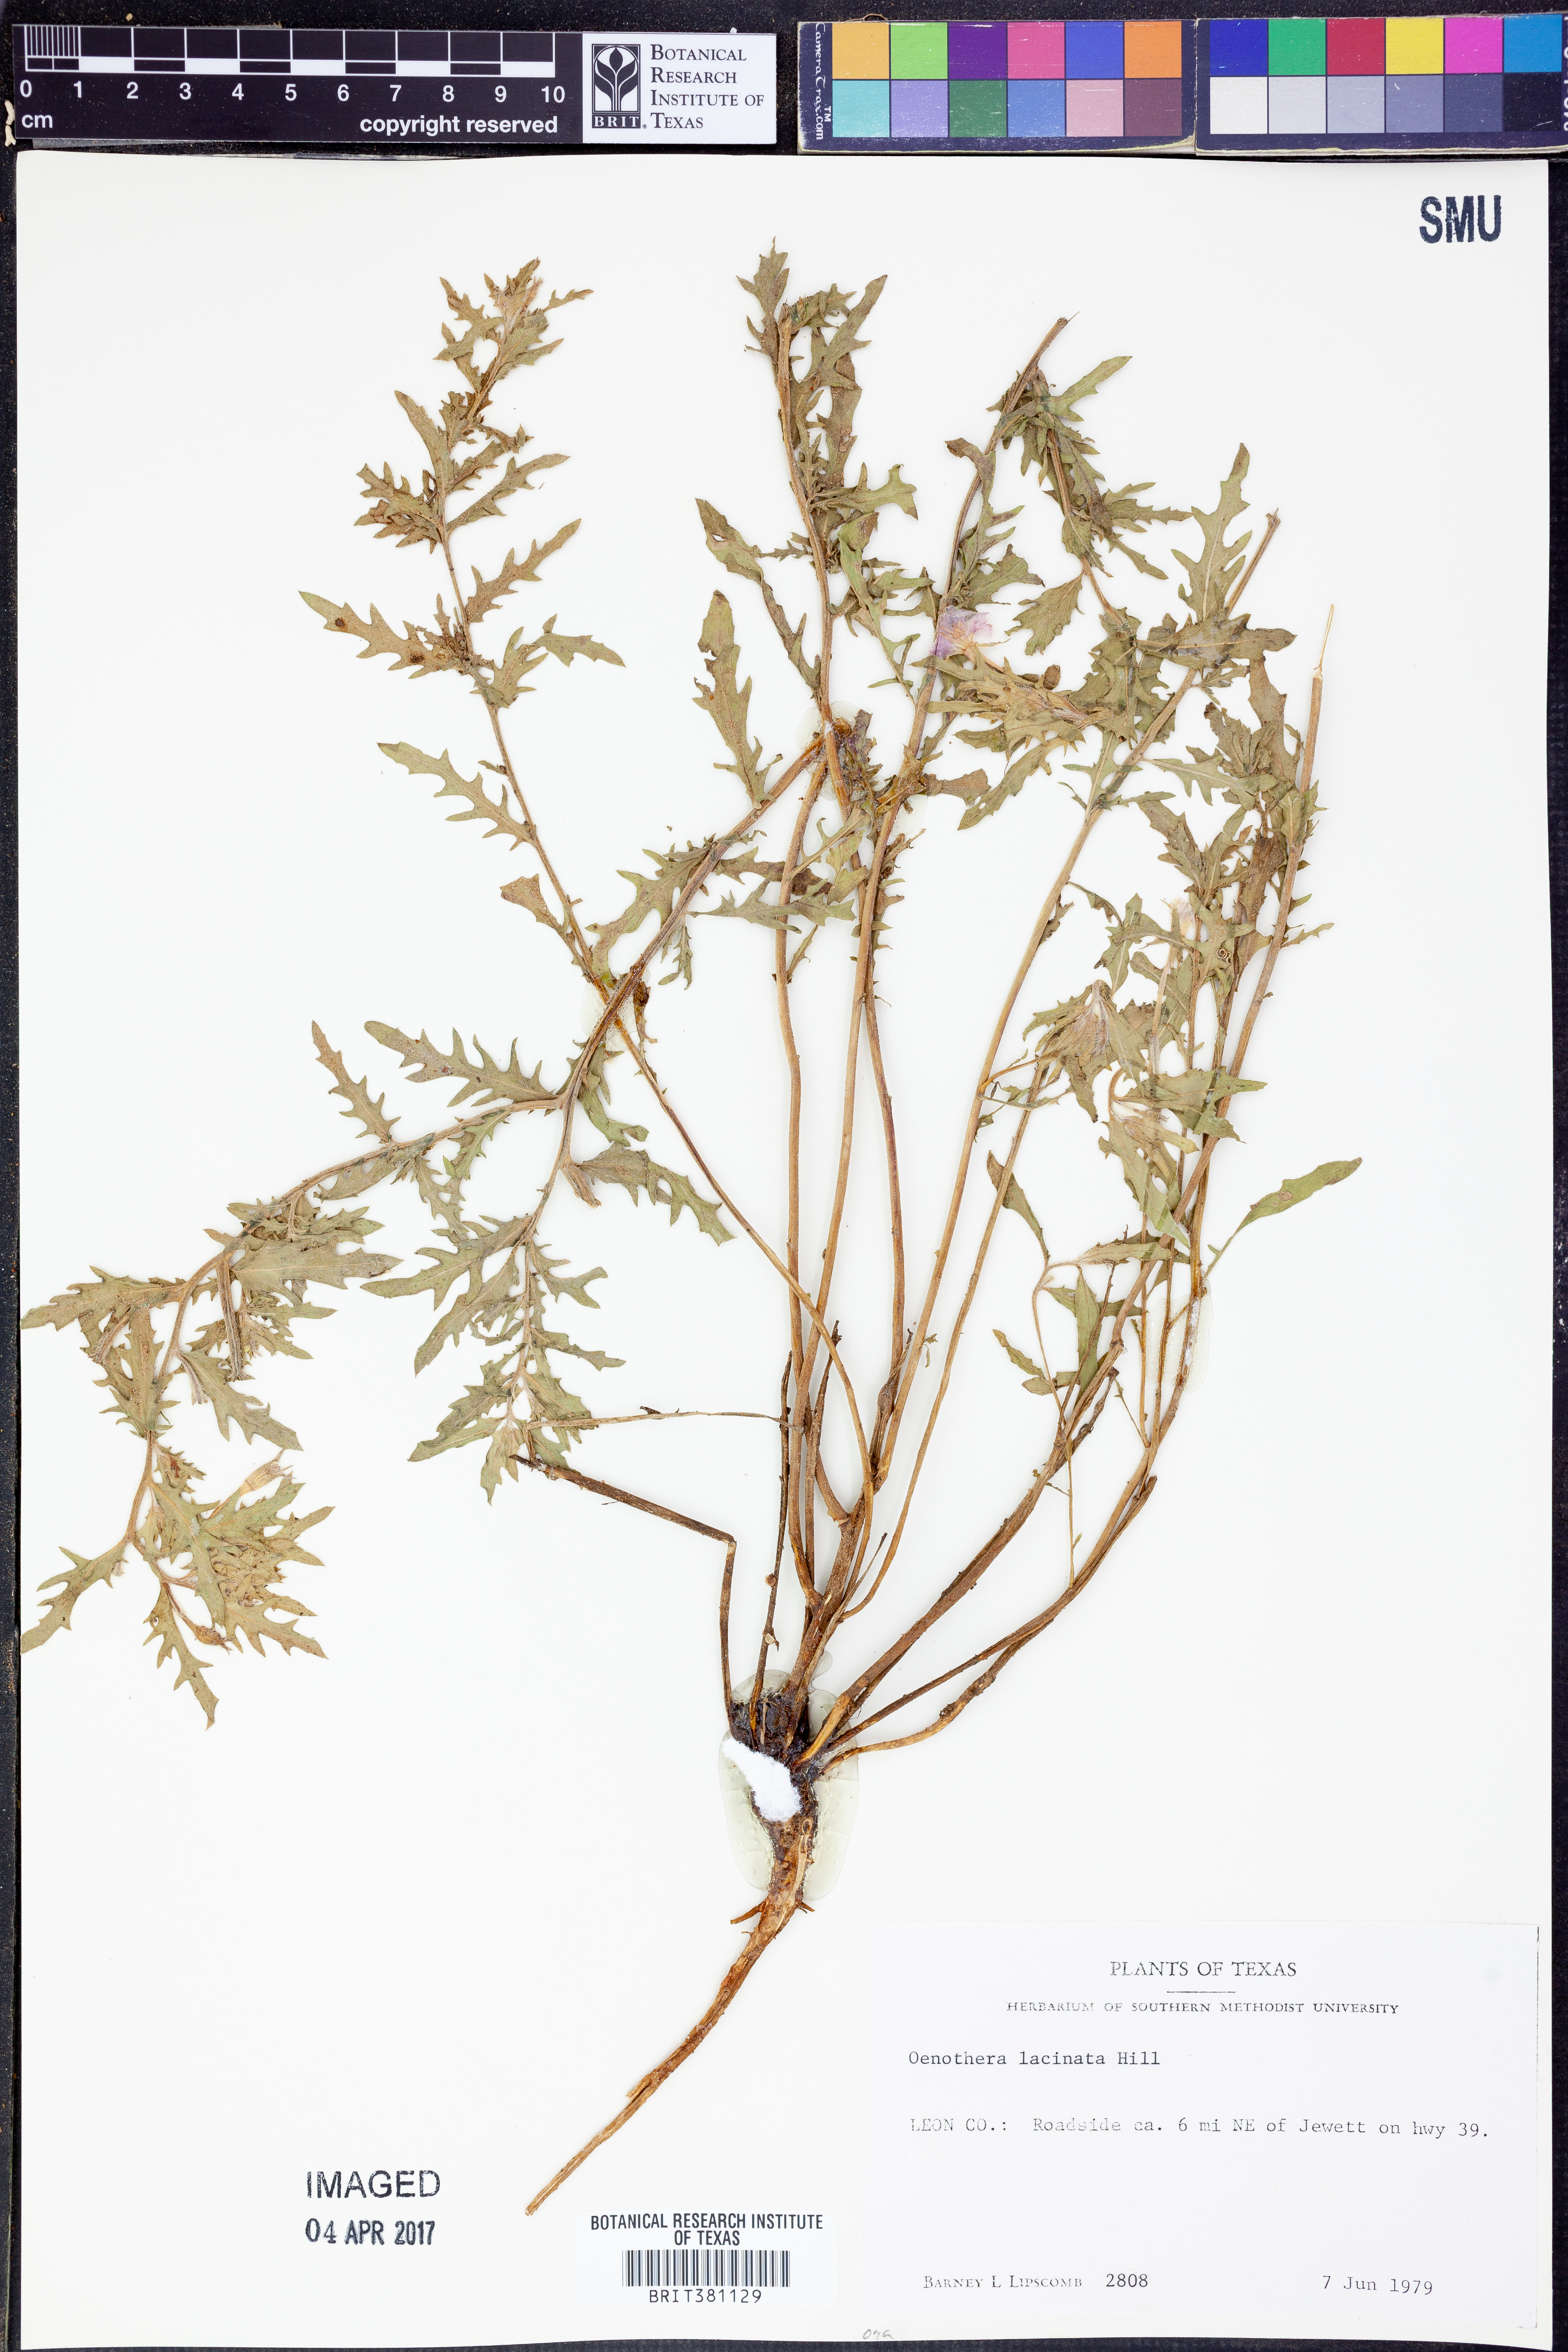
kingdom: Plantae
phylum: Tracheophyta
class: Magnoliopsida
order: Myrtales
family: Onagraceae
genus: Oenothera
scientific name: Oenothera laciniata
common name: Cut-leaved evening-primrose
